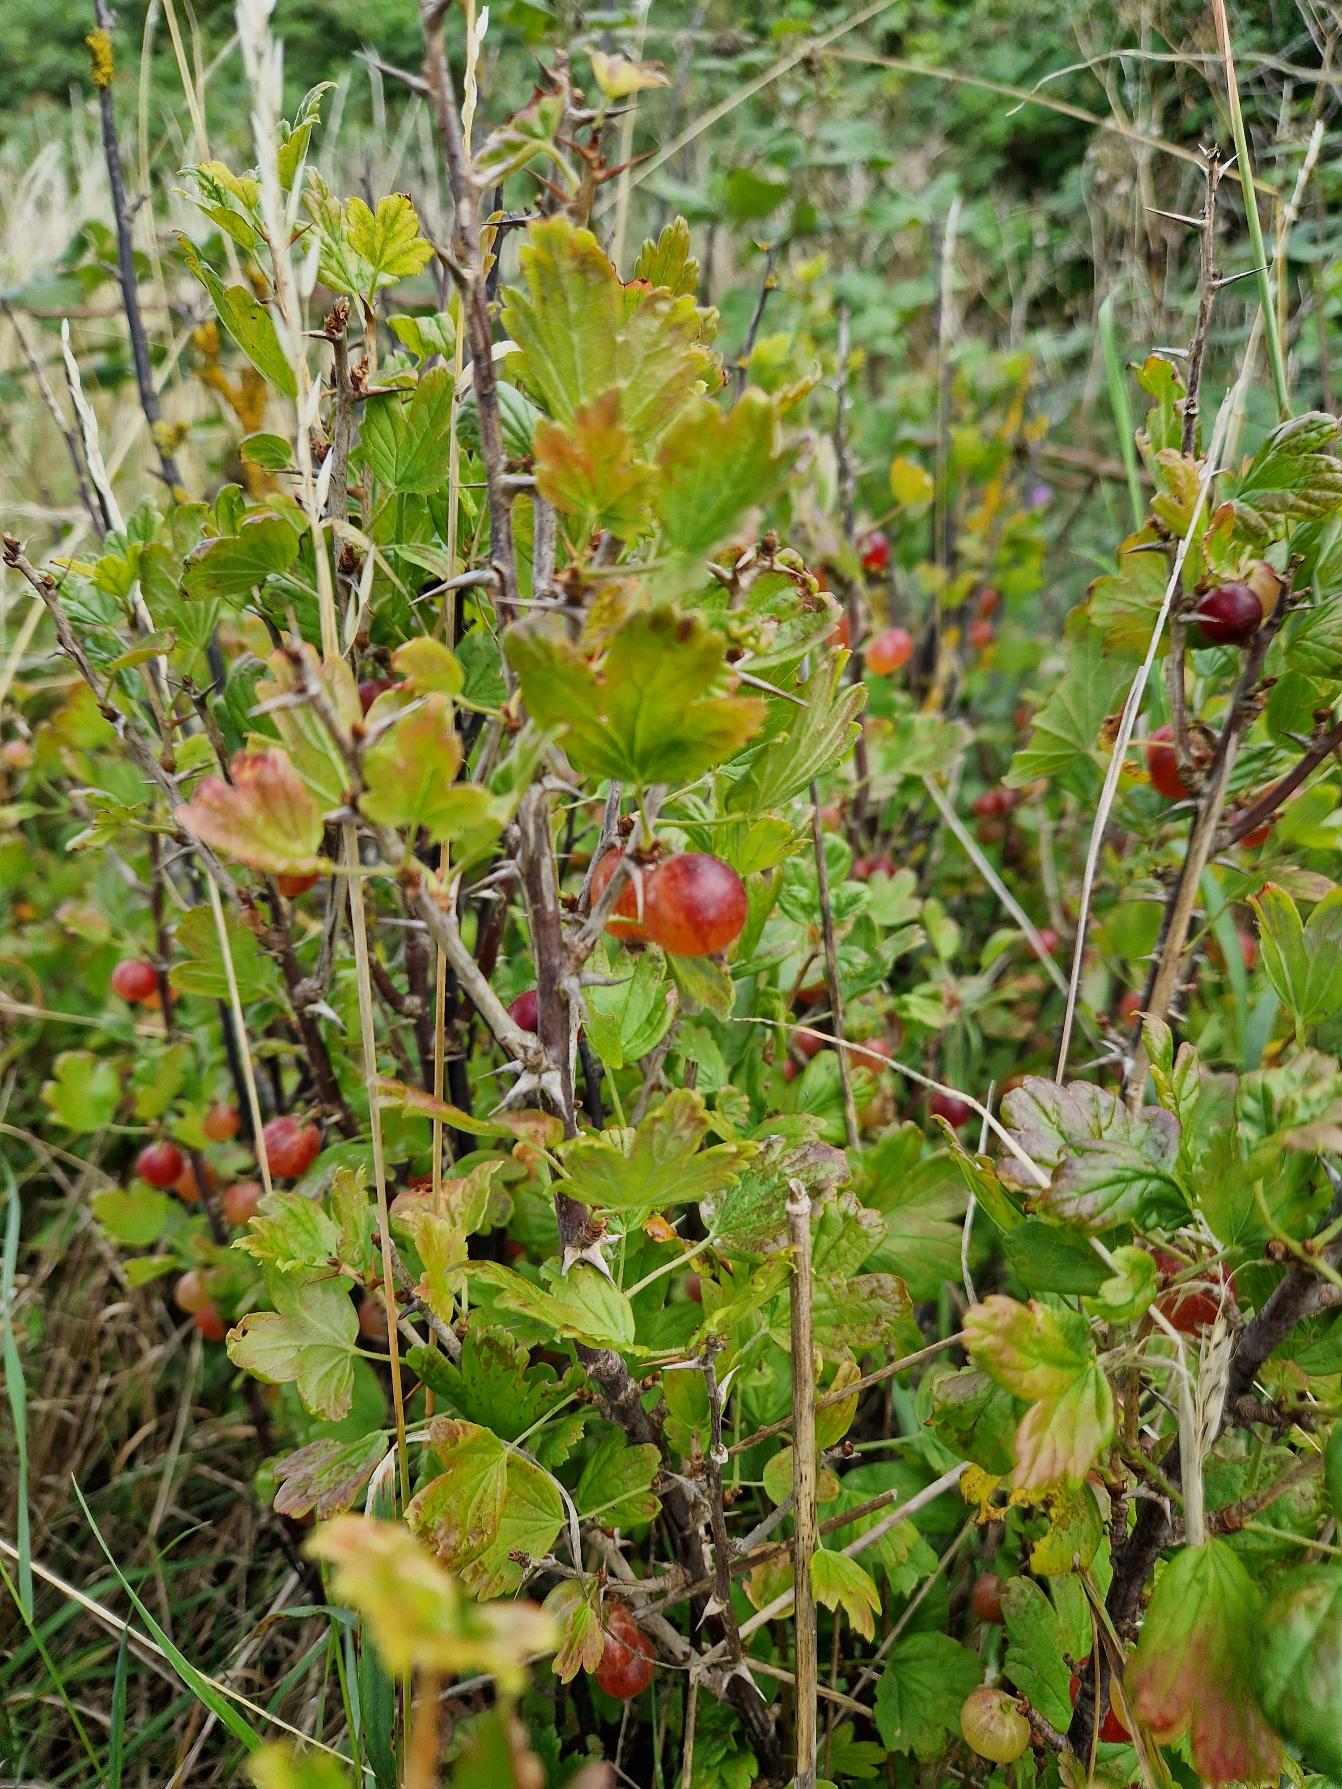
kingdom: Plantae
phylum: Tracheophyta
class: Magnoliopsida
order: Saxifragales
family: Grossulariaceae
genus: Ribes
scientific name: Ribes uva-crispa
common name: Stikkelsbær
